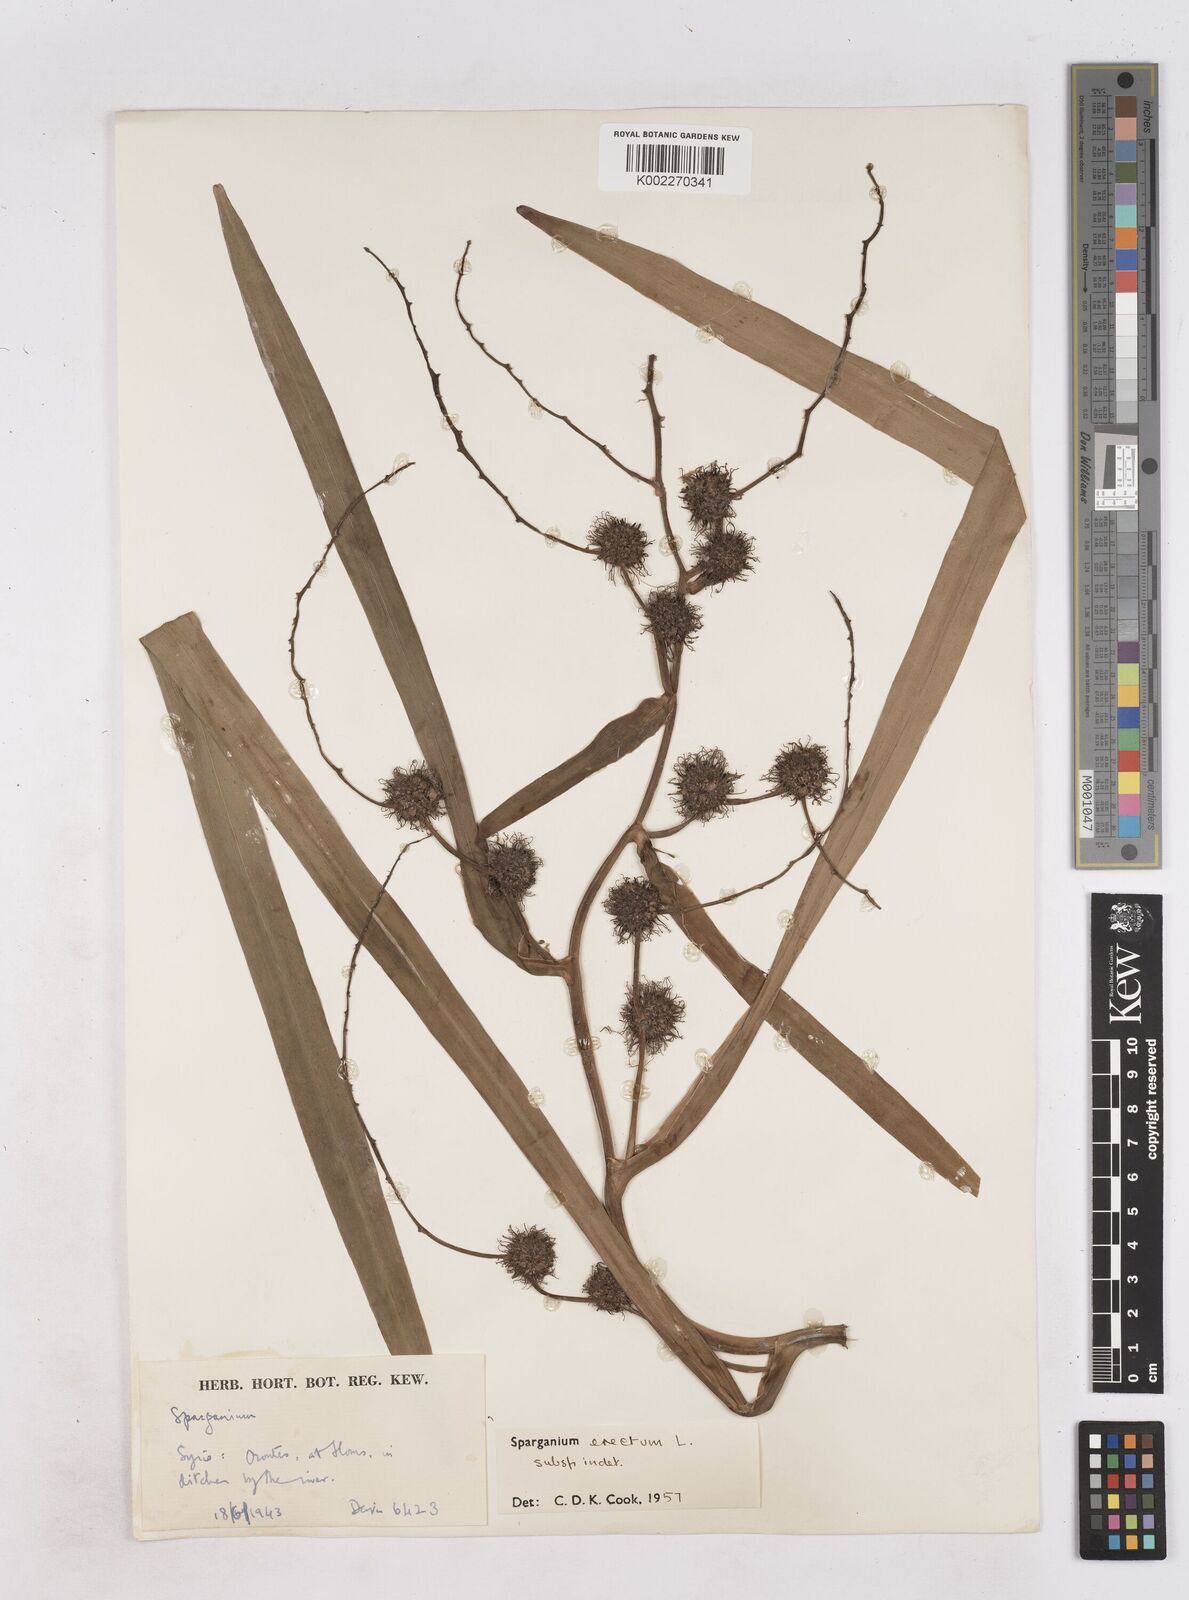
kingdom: Plantae
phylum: Tracheophyta
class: Liliopsida
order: Poales
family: Typhaceae
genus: Sparganium
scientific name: Sparganium erectum
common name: Branched bur-reed
